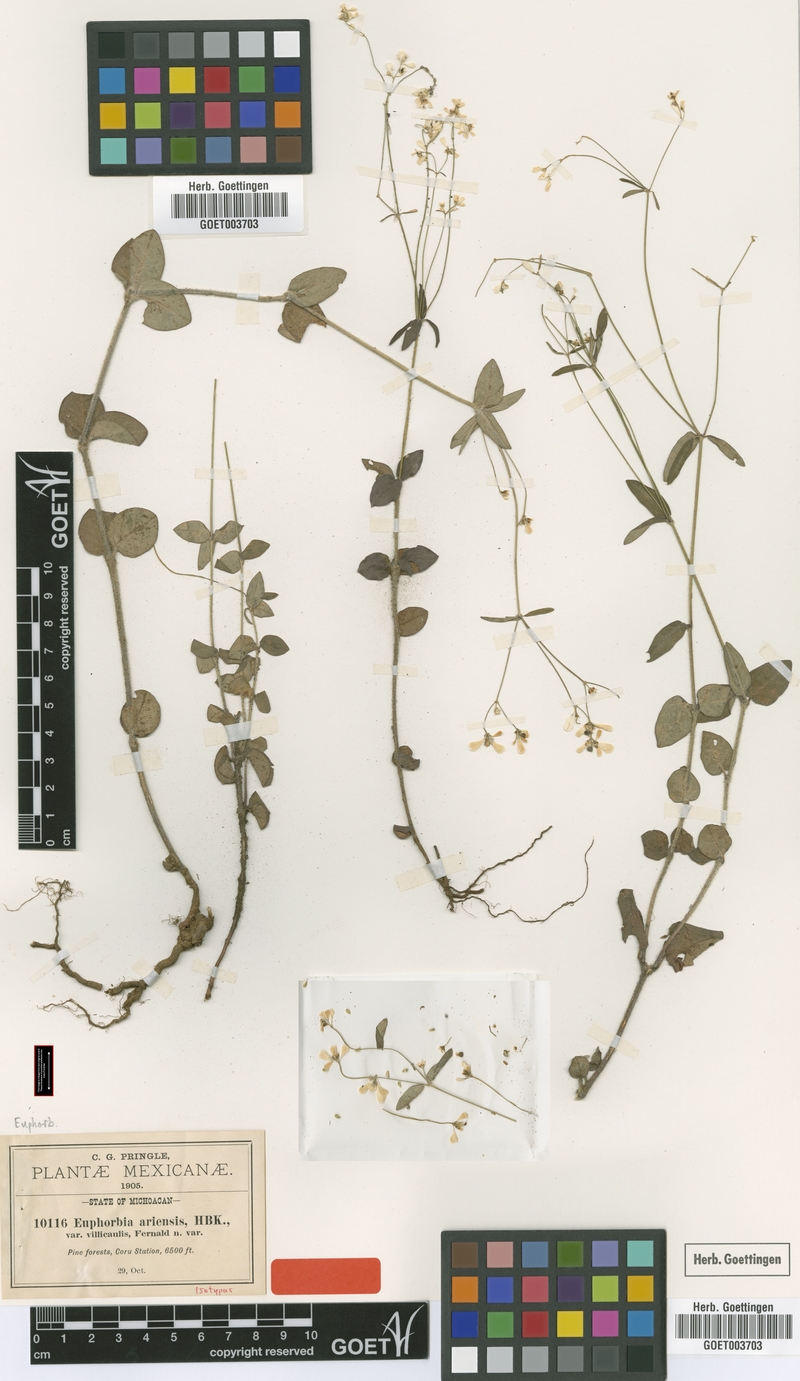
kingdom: Plantae
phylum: Tracheophyta
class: Magnoliopsida
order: Malpighiales
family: Euphorbiaceae
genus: Euphorbia
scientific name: Euphorbia ariensis
